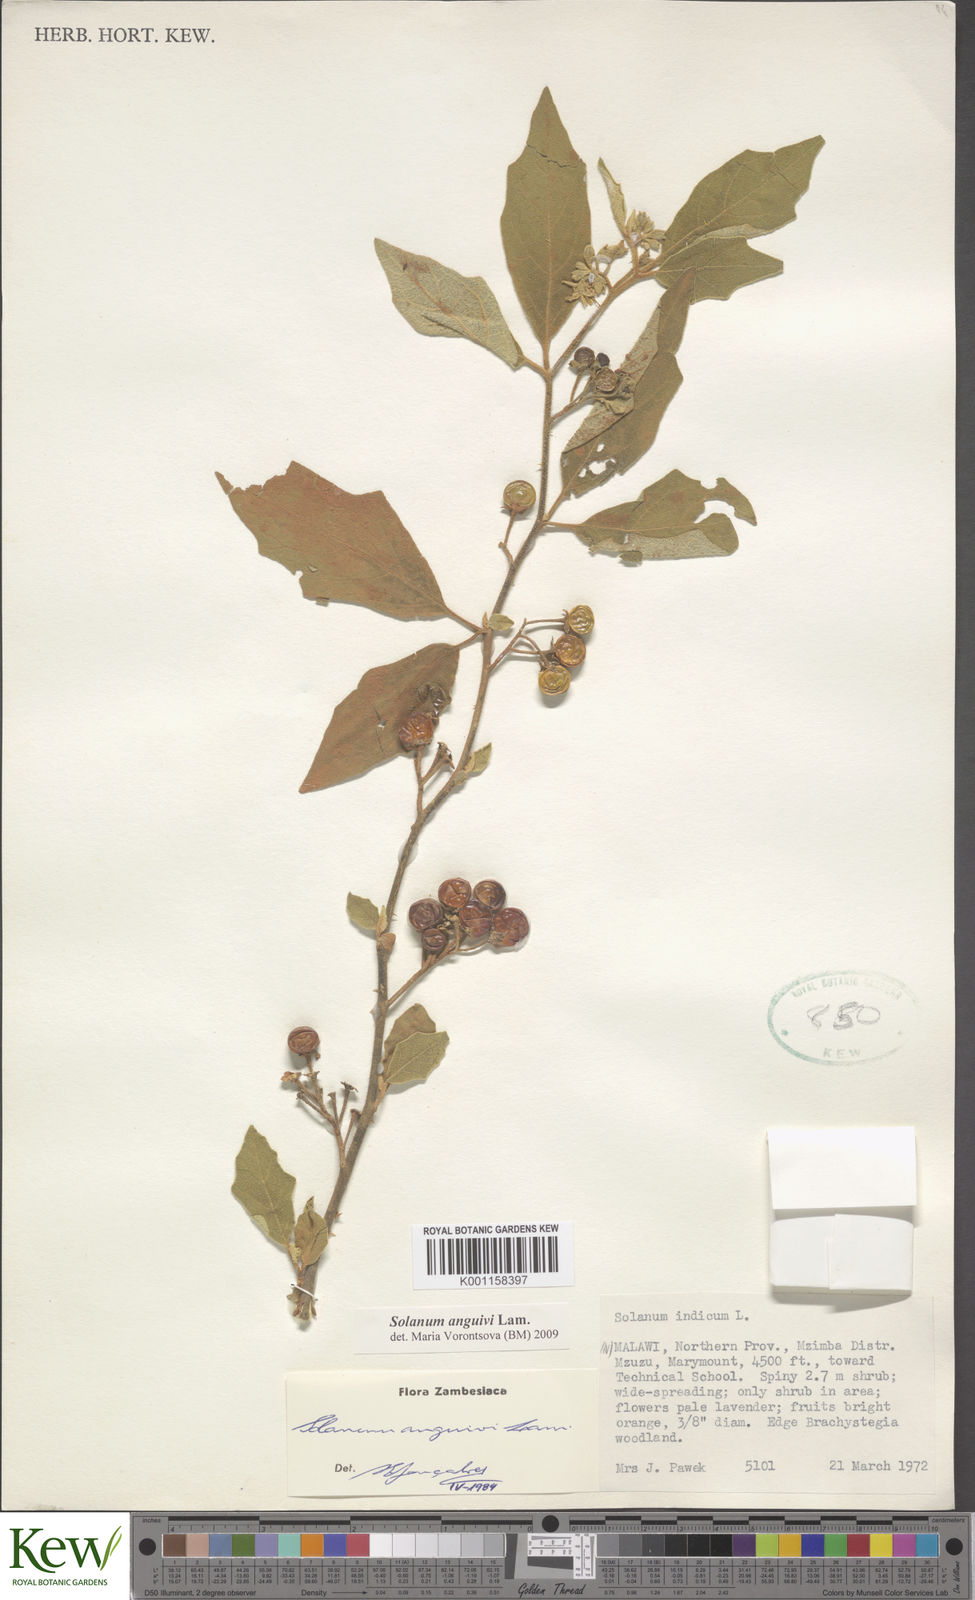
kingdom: Plantae
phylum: Tracheophyta
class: Magnoliopsida
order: Solanales
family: Solanaceae
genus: Solanum
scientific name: Solanum anguivi
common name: Forest bitterberry
